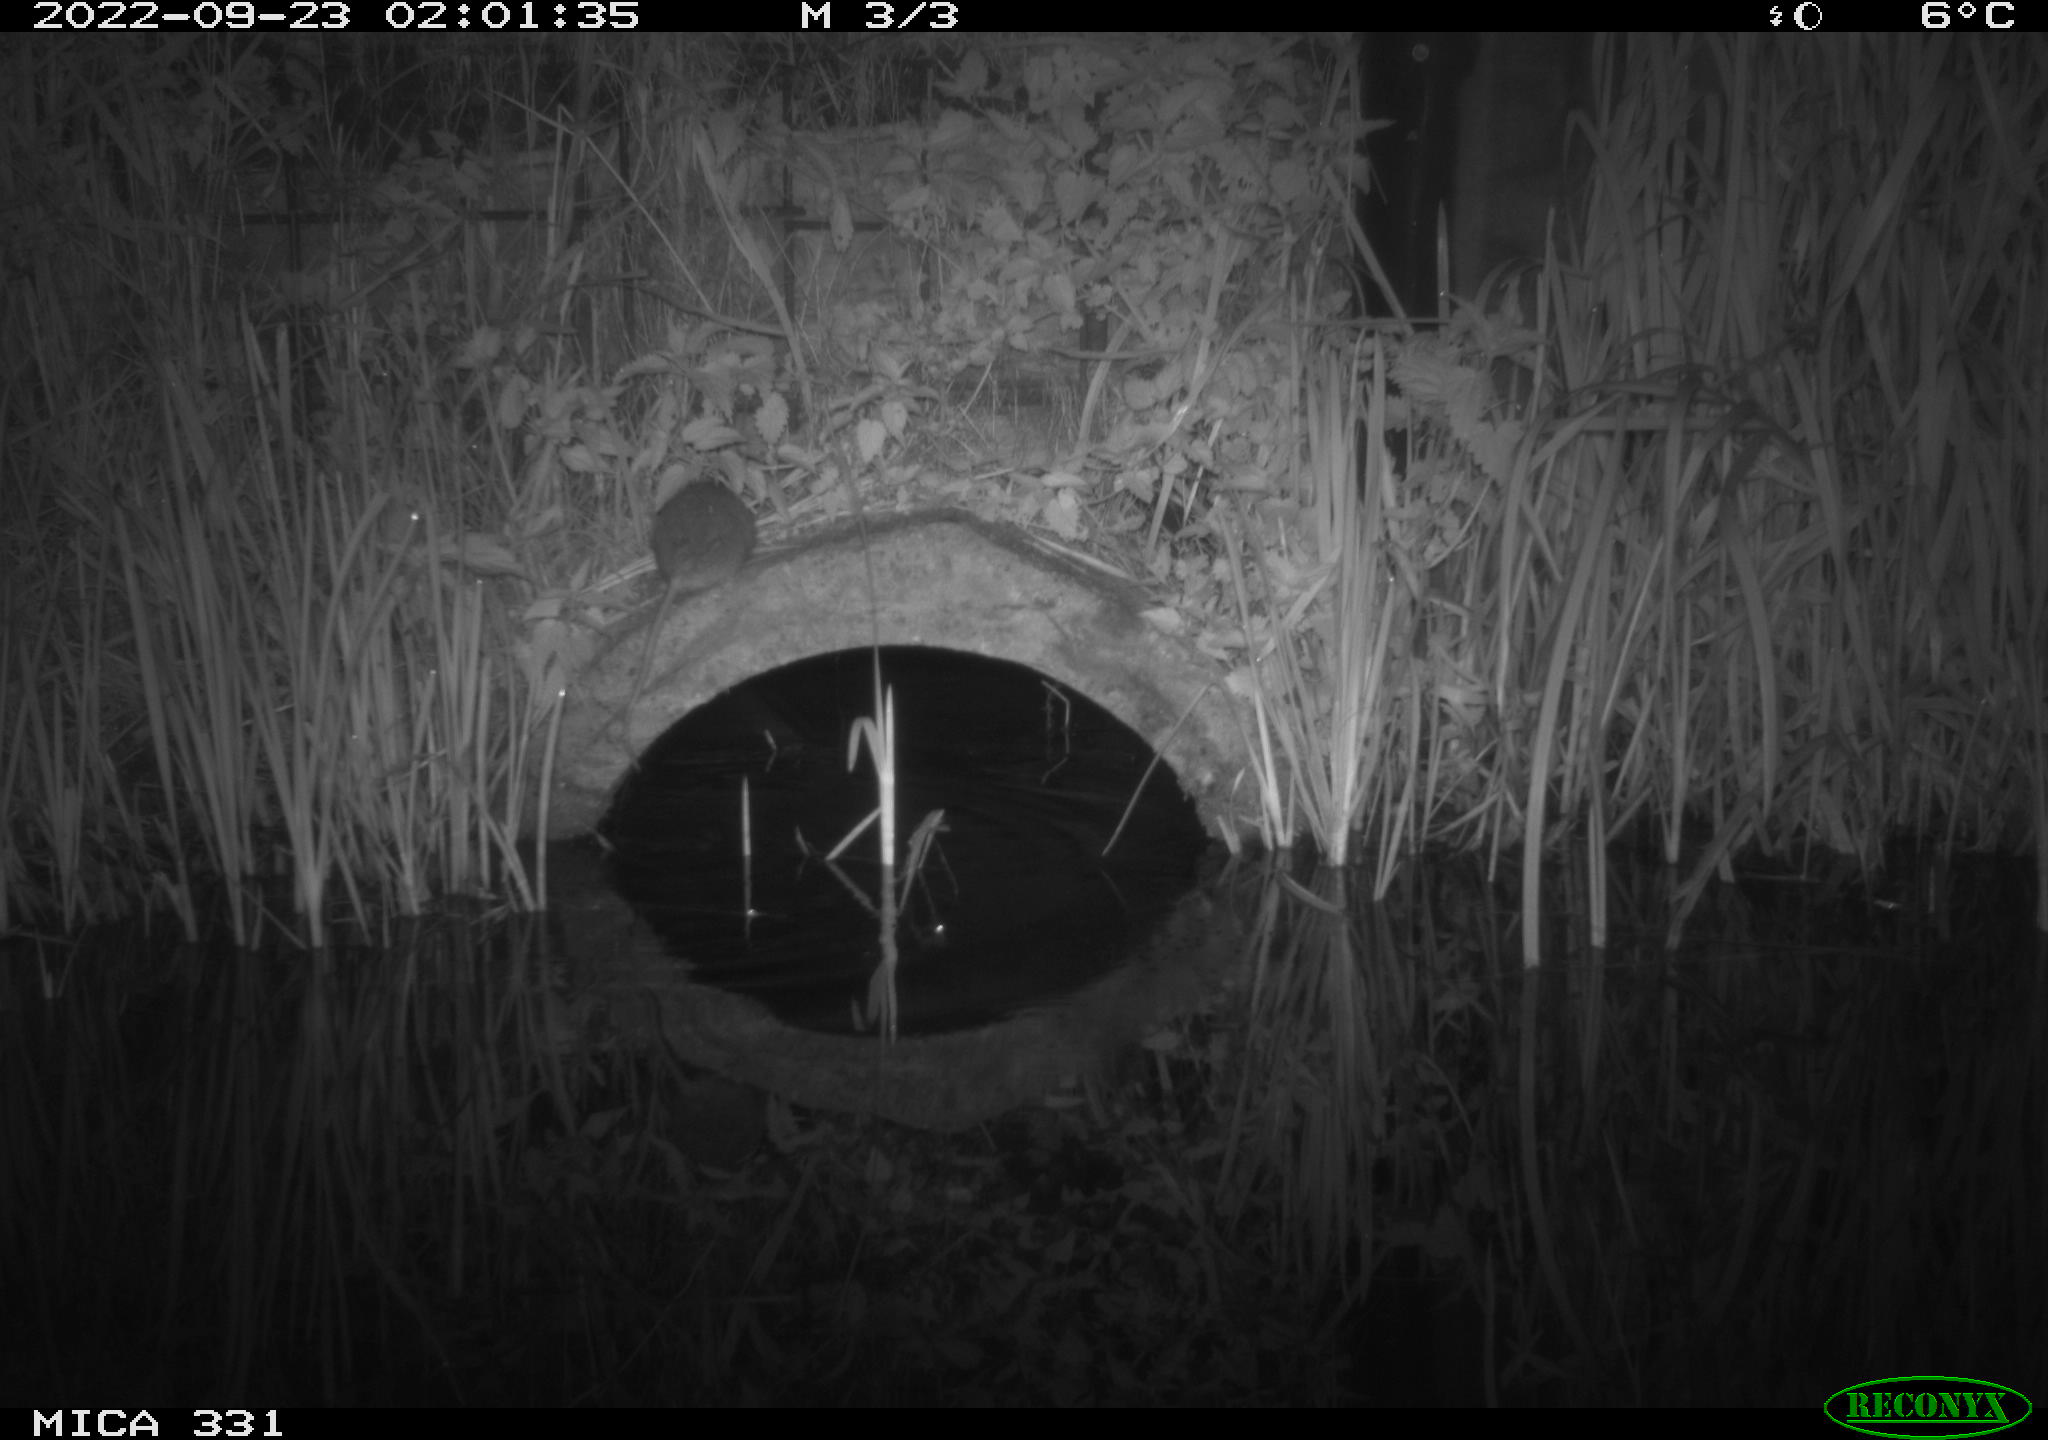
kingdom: Animalia
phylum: Chordata
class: Mammalia
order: Rodentia
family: Muridae
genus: Rattus
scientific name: Rattus norvegicus
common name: Brown rat
